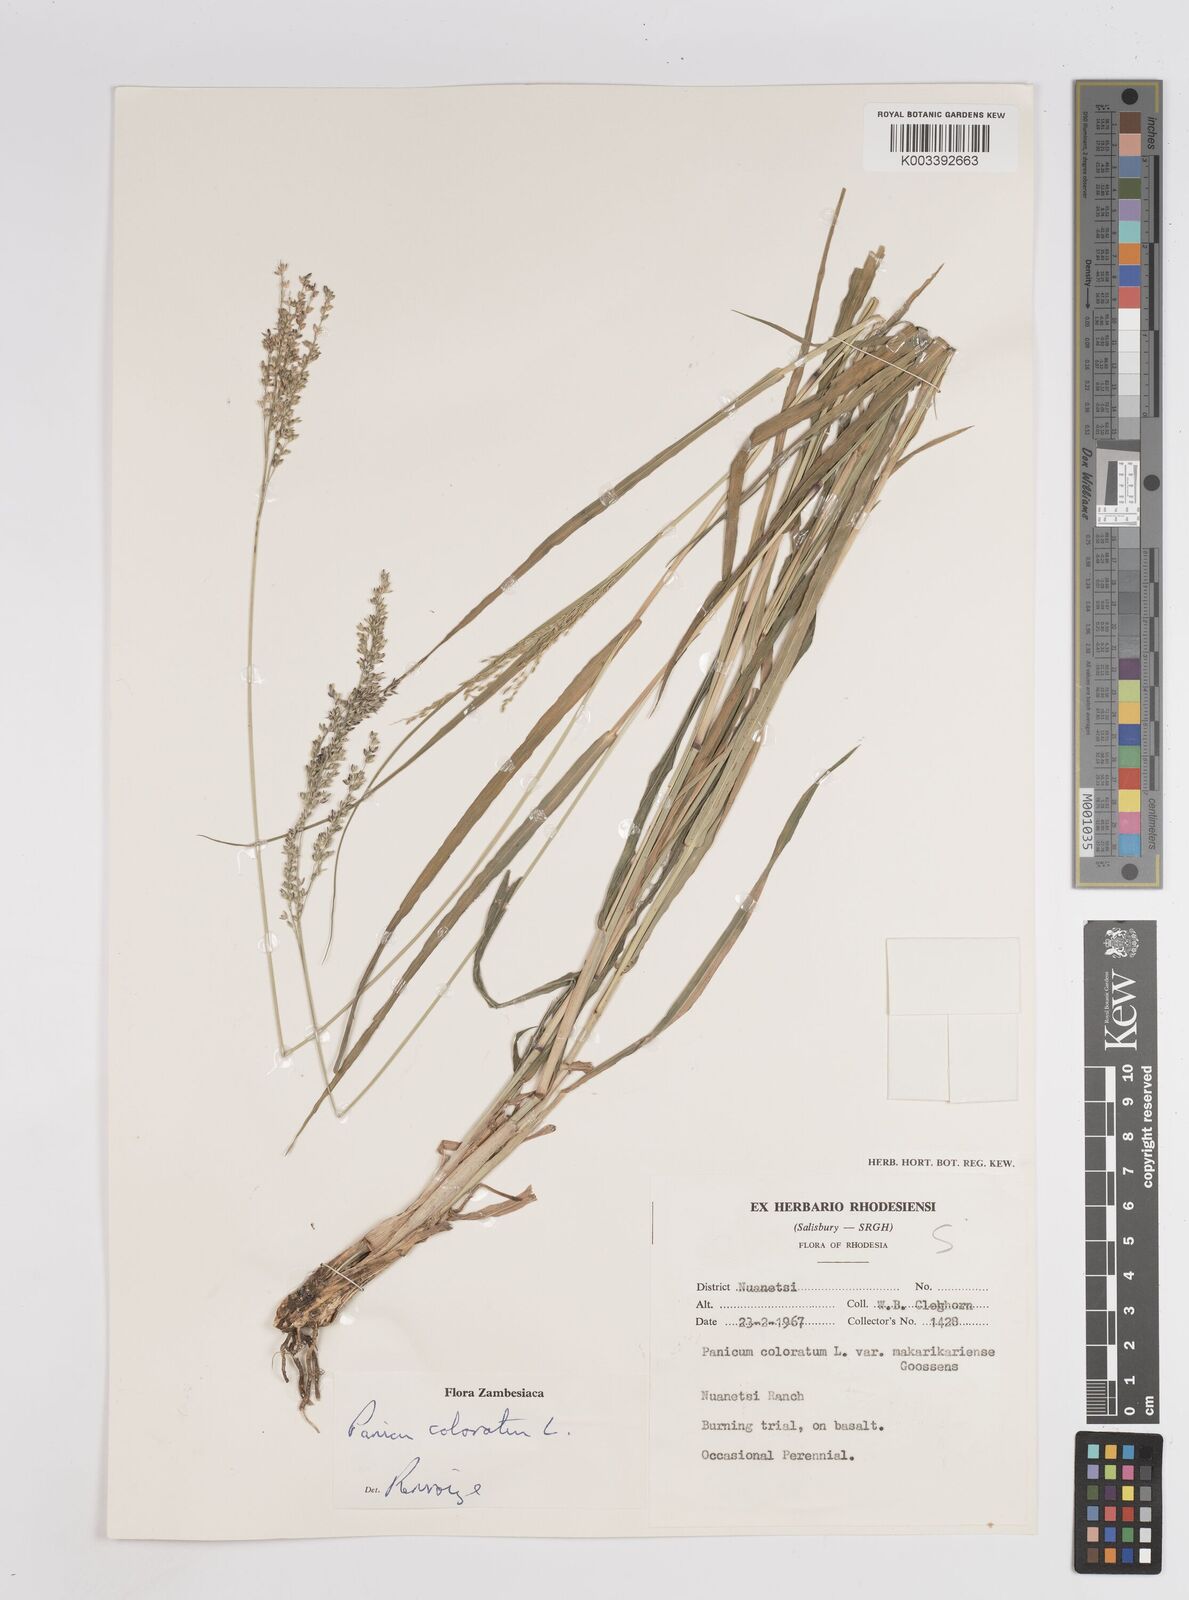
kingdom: Plantae
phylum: Tracheophyta
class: Liliopsida
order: Poales
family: Poaceae
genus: Panicum
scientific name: Panicum coloratum
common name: Kleingrass
